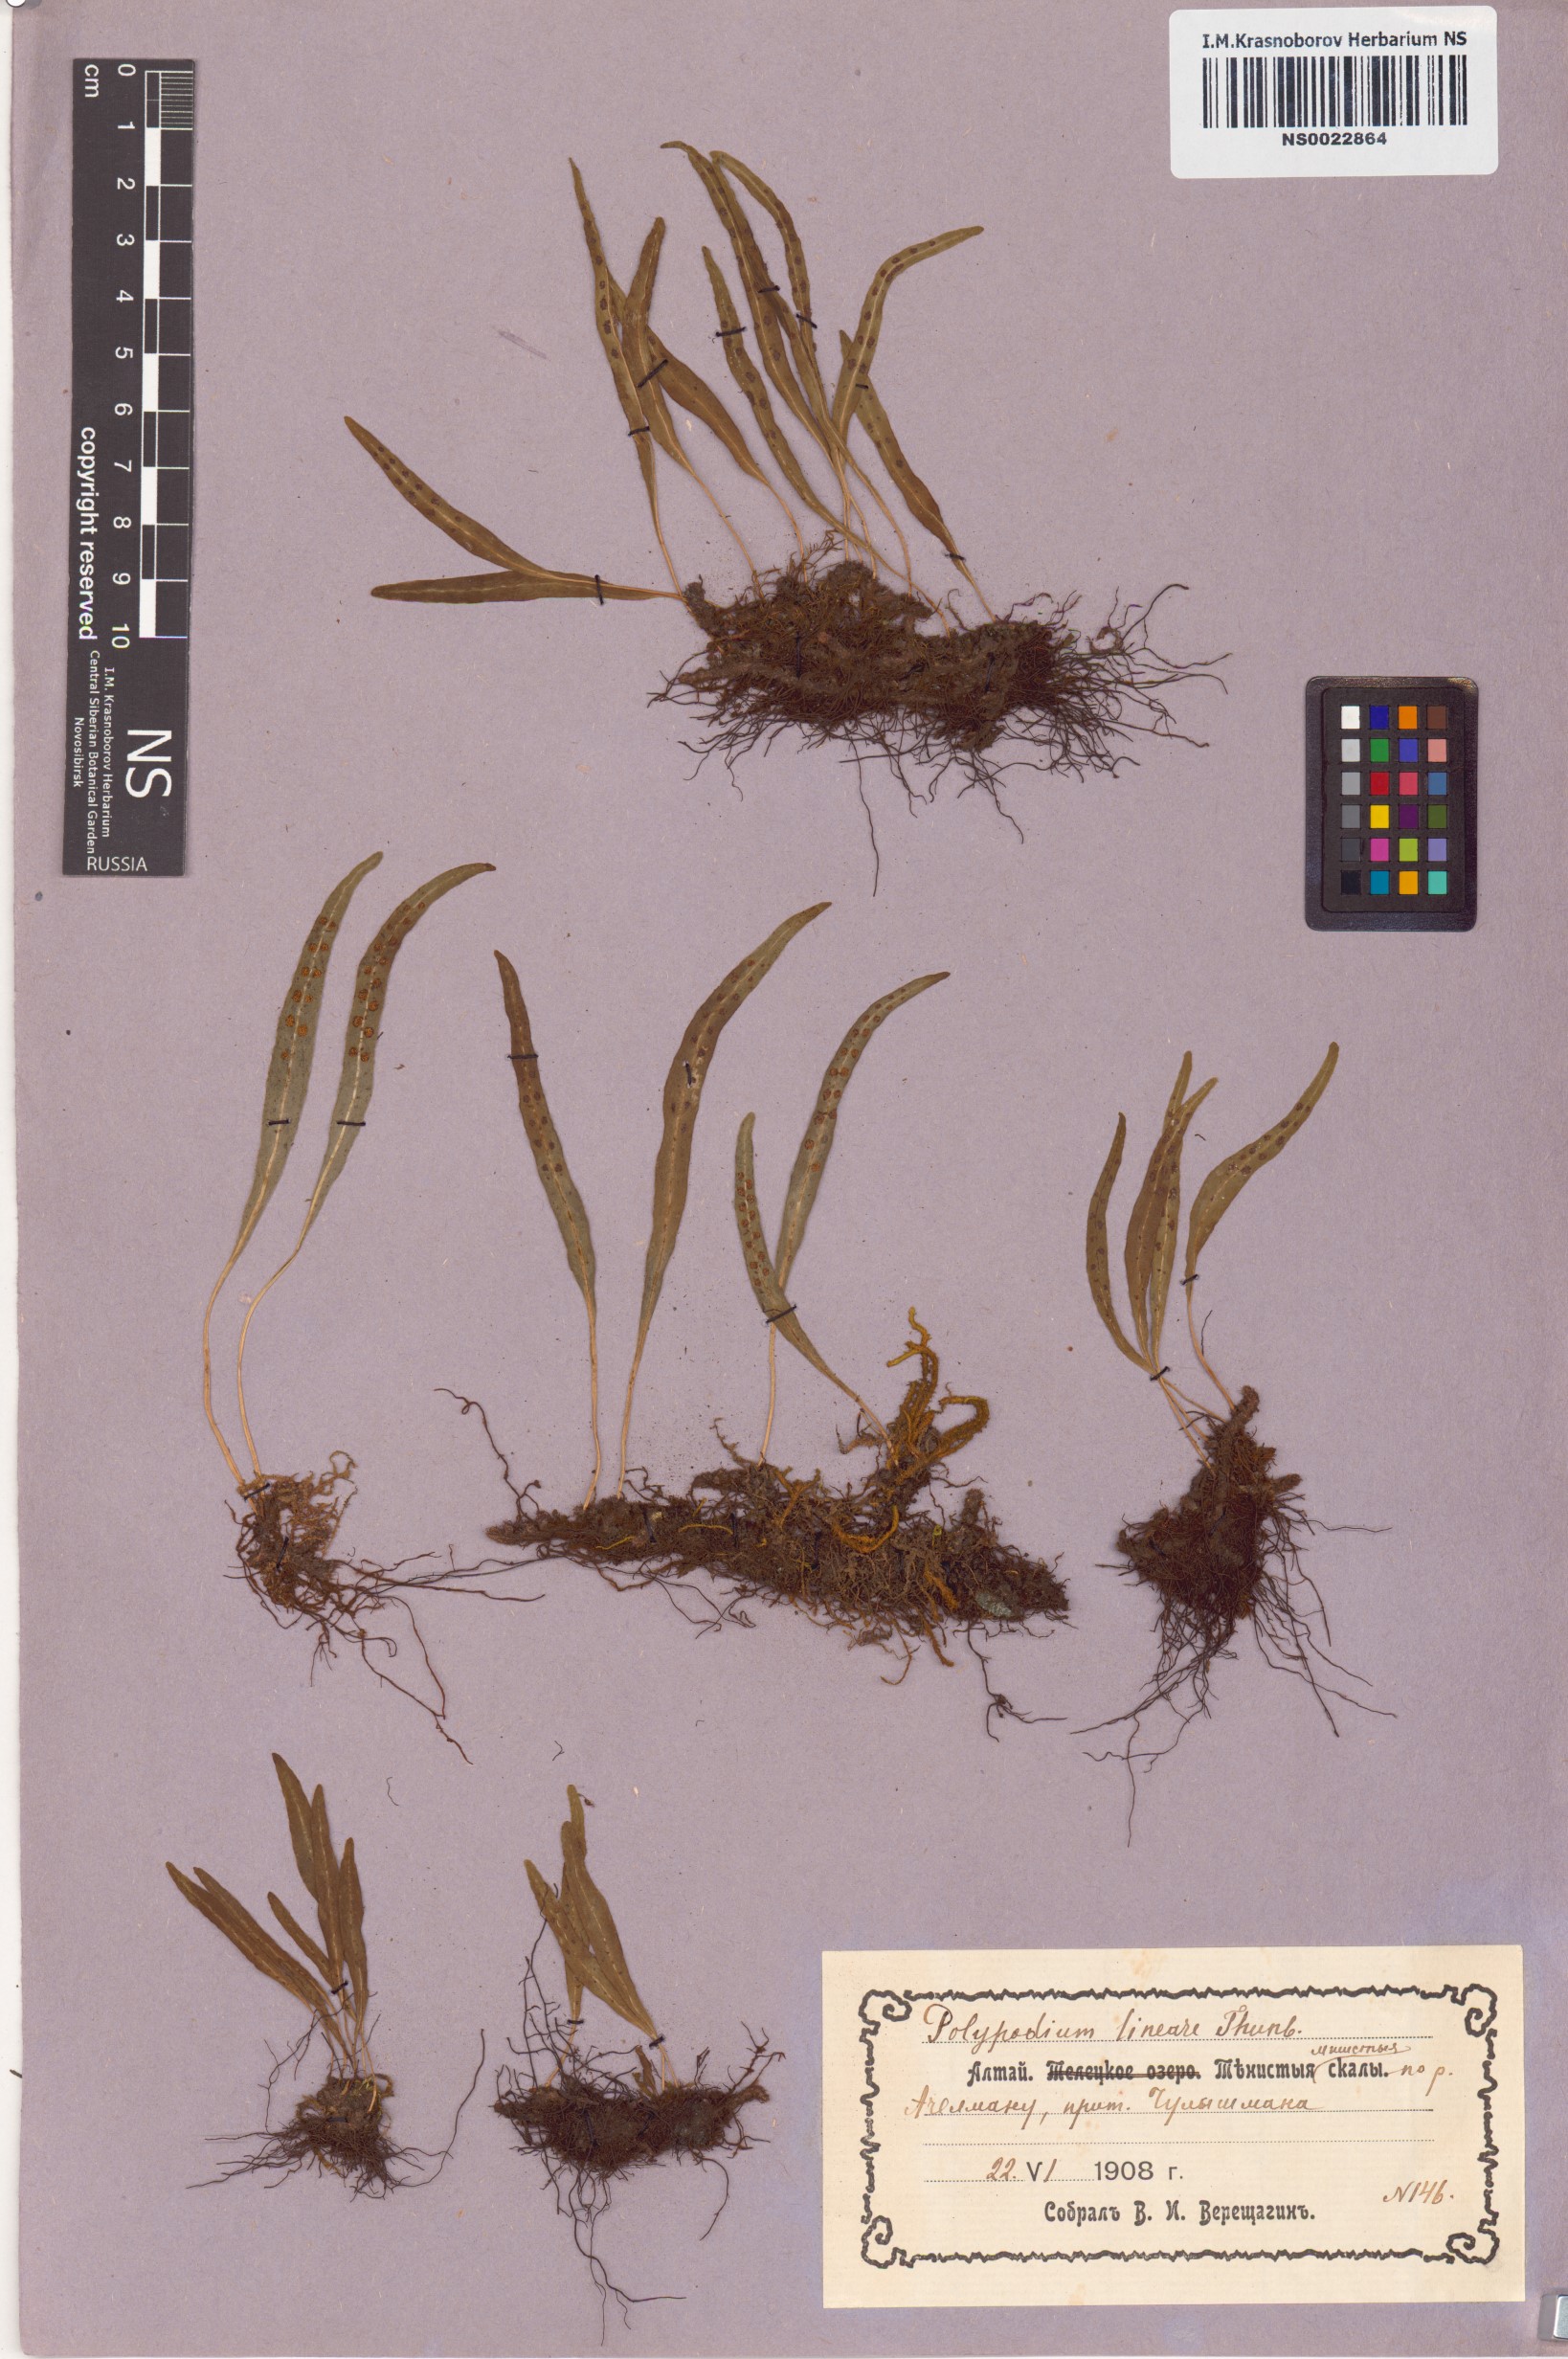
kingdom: Plantae
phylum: Tracheophyta
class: Polypodiopsida
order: Polypodiales
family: Polypodiaceae
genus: Lepisorus
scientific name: Lepisorus thunbergianus
